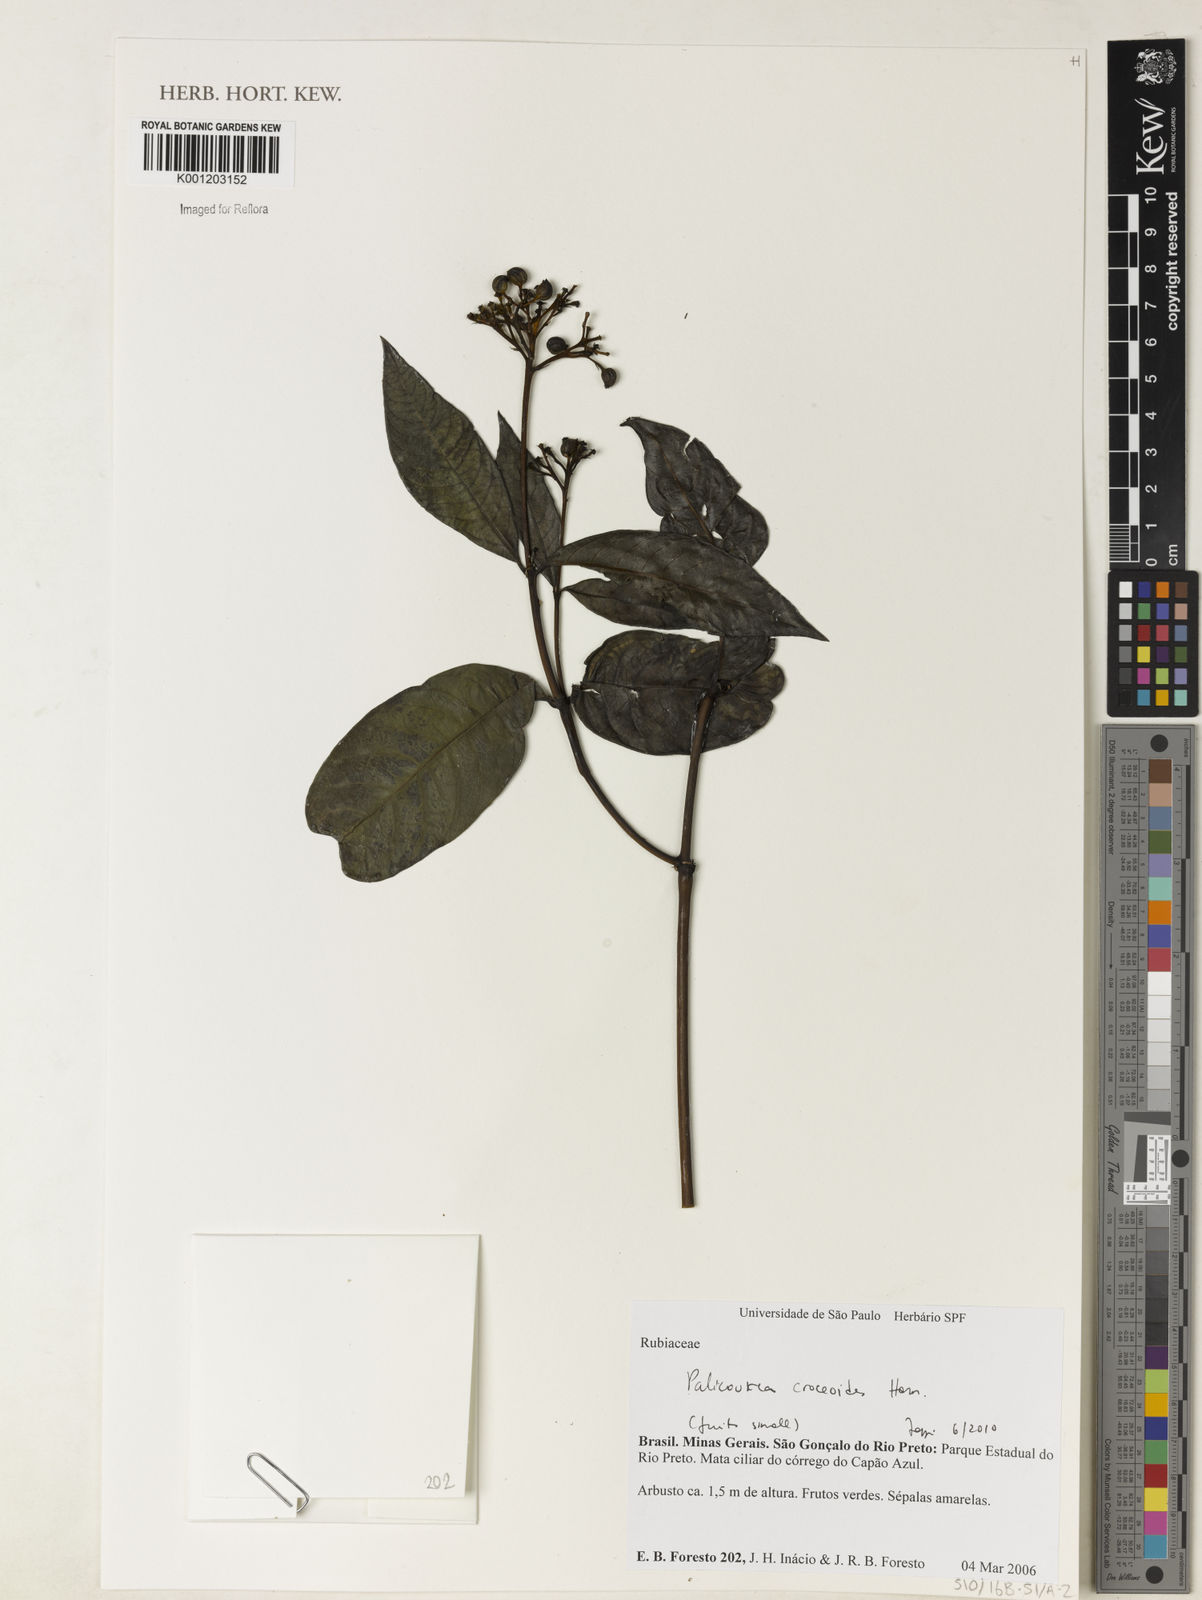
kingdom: Plantae
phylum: Tracheophyta
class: Magnoliopsida
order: Gentianales
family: Rubiaceae
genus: Palicourea
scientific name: Palicourea croceoides
